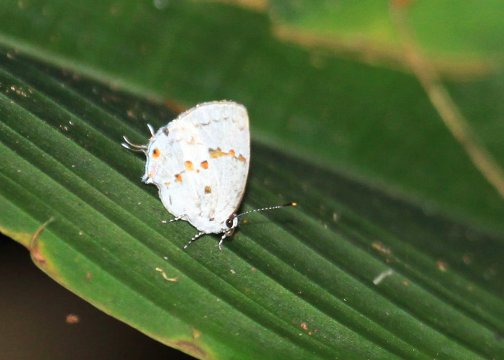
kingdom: Animalia
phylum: Arthropoda
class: Insecta
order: Lepidoptera
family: Lycaenidae
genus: Thecla
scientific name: Thecla celmus
